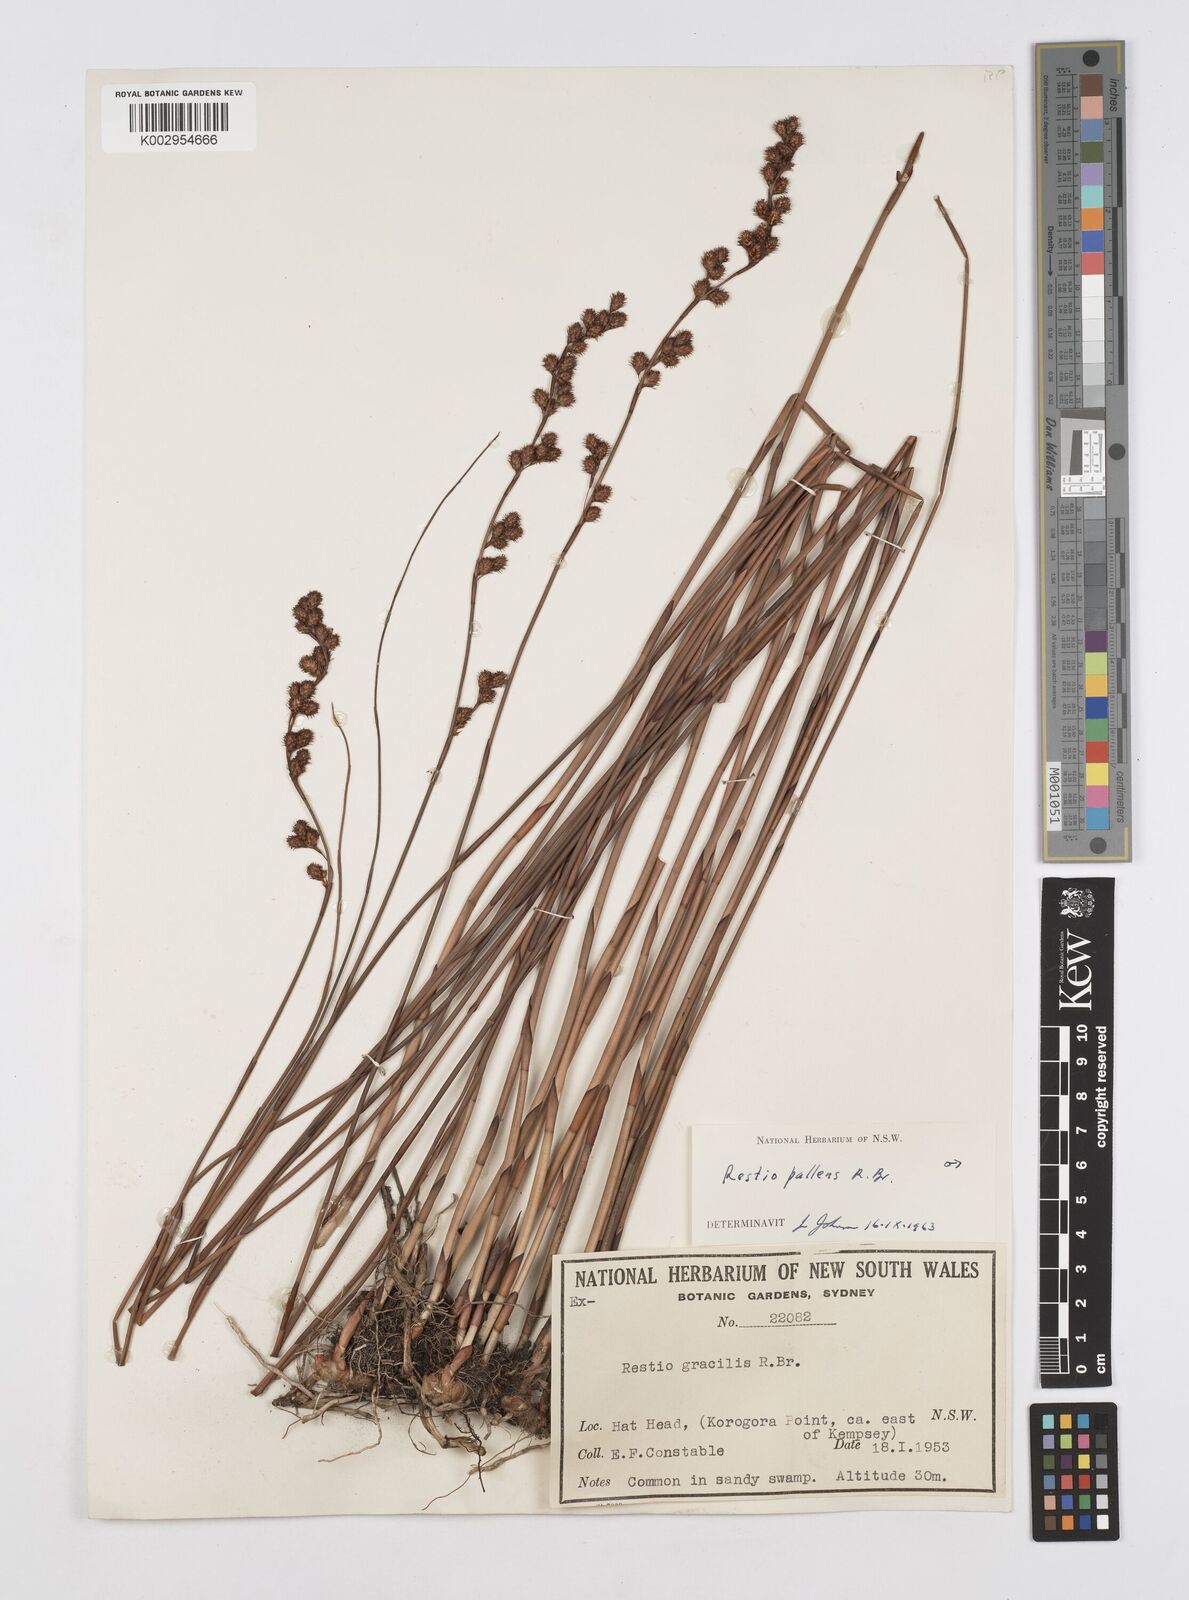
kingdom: Plantae
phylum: Tracheophyta
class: Liliopsida
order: Poales
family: Restionaceae
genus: Baloskion
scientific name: Baloskion pallens
